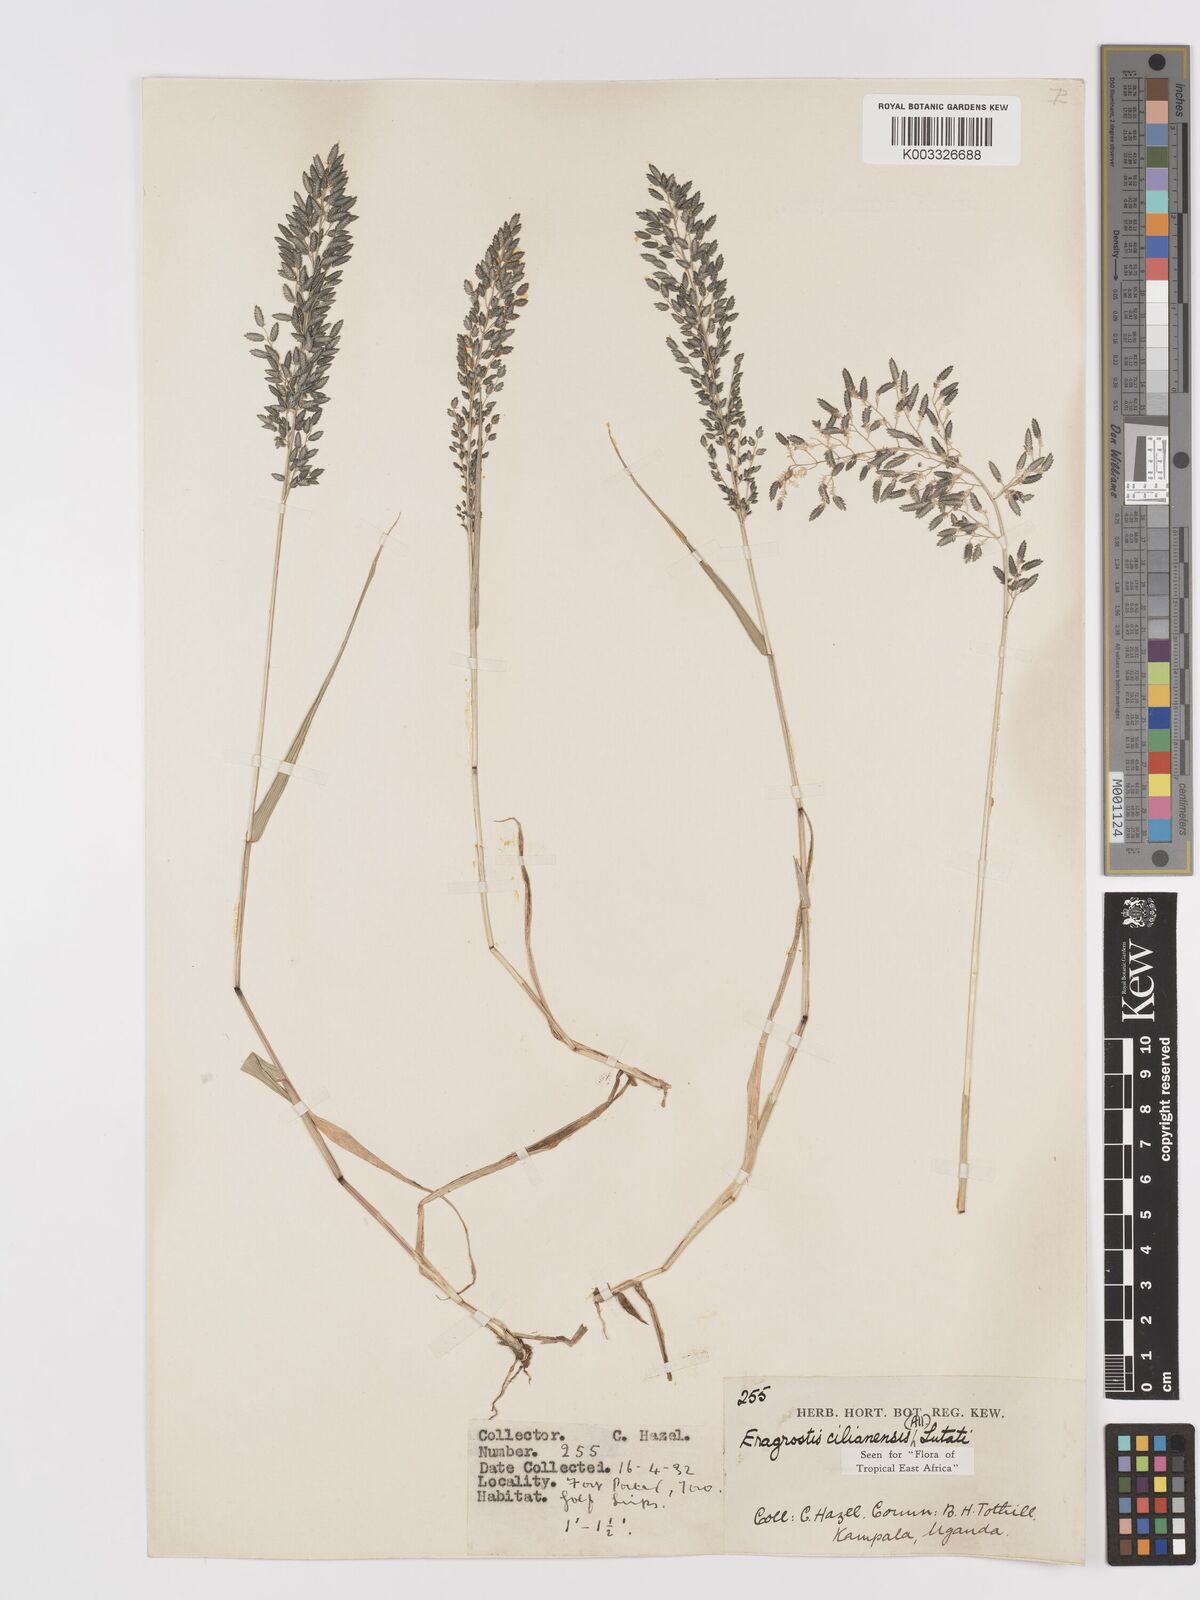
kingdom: Plantae
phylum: Tracheophyta
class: Liliopsida
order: Poales
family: Poaceae
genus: Eragrostis
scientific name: Eragrostis cilianensis
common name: Stinkgrass
